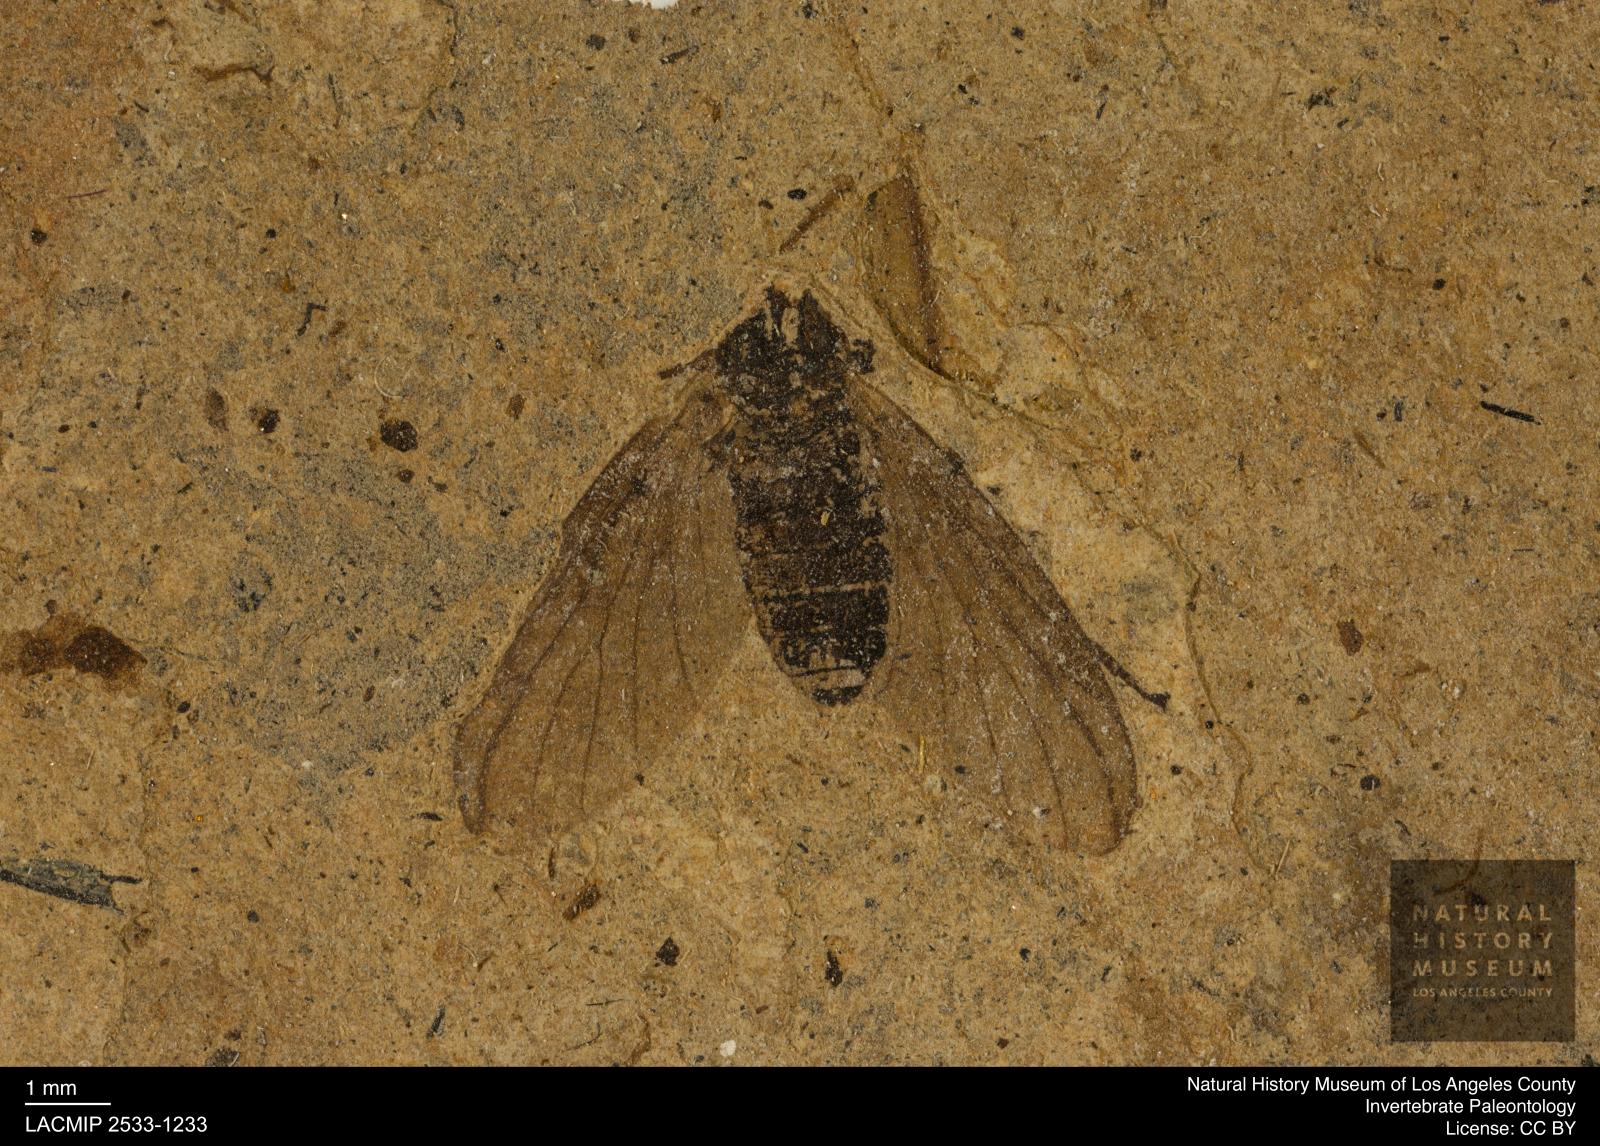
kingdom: Animalia
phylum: Arthropoda
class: Insecta
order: Diptera
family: Bibionidae
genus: Plecia
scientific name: Plecia hypogaea
